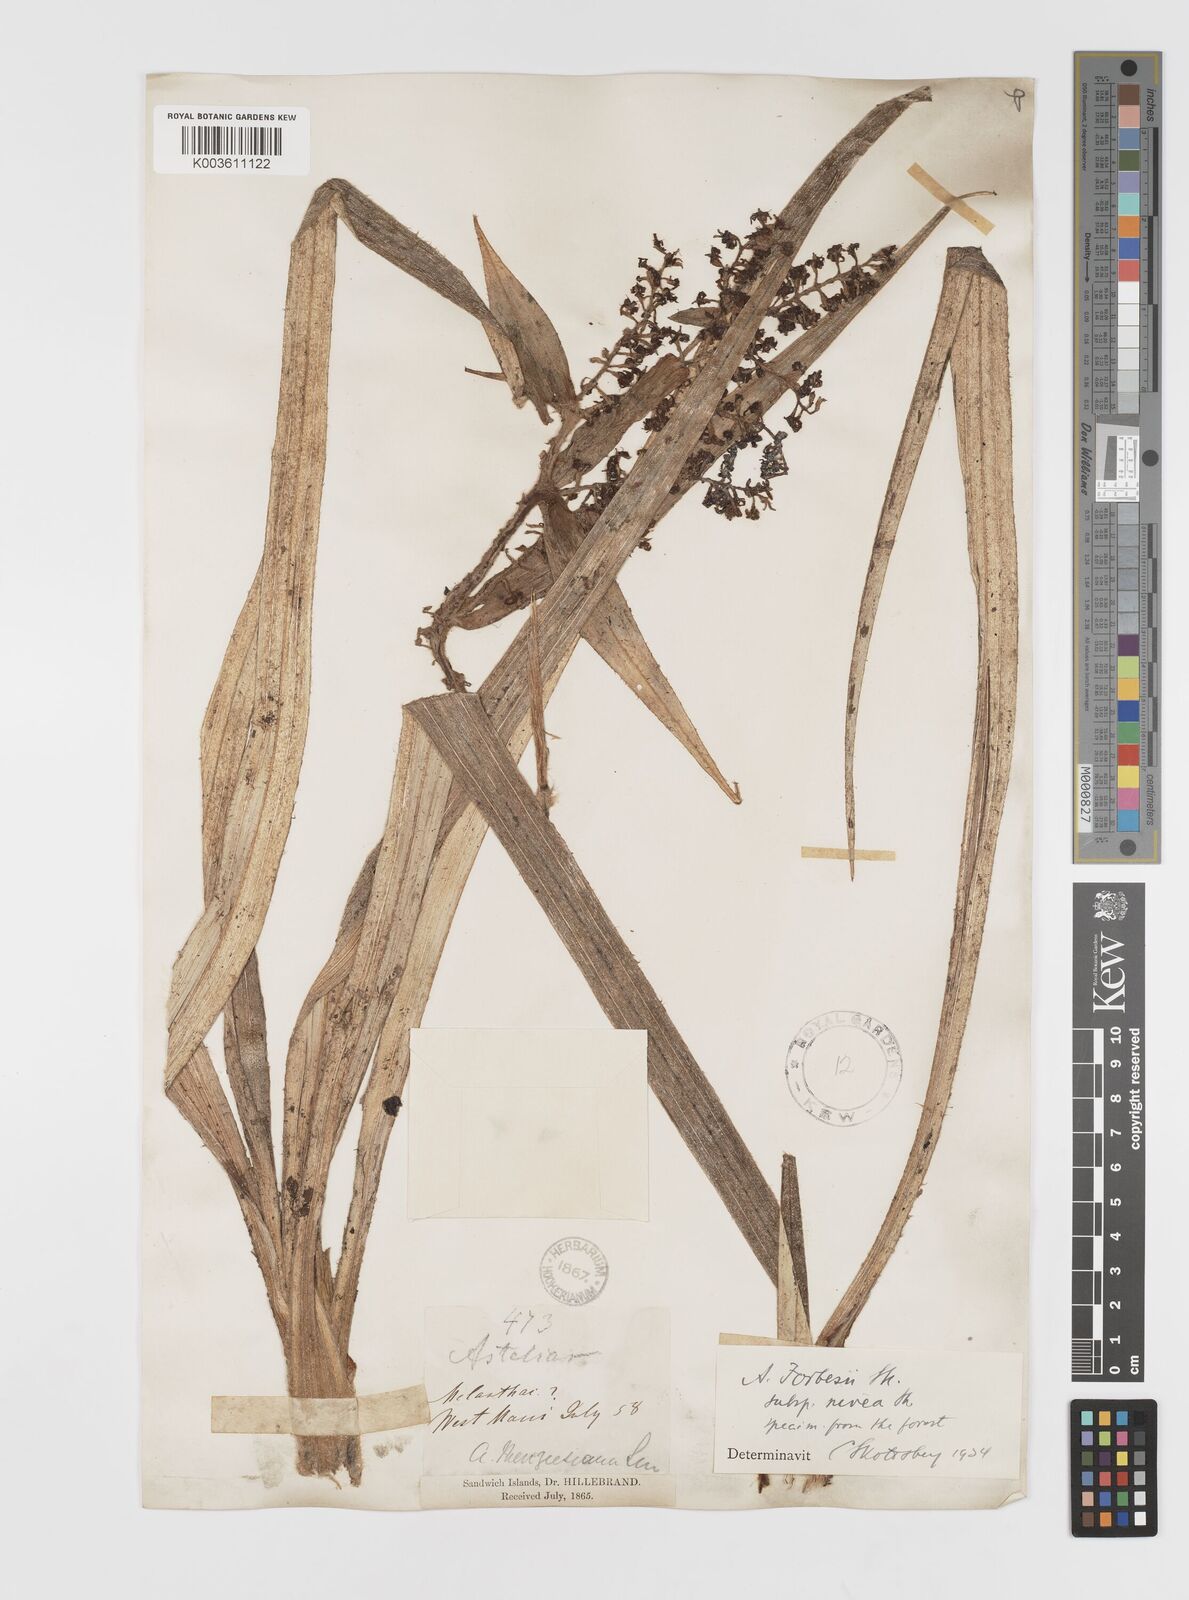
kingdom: Plantae
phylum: Tracheophyta
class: Liliopsida
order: Asparagales
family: Asteliaceae
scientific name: Asteliaceae
